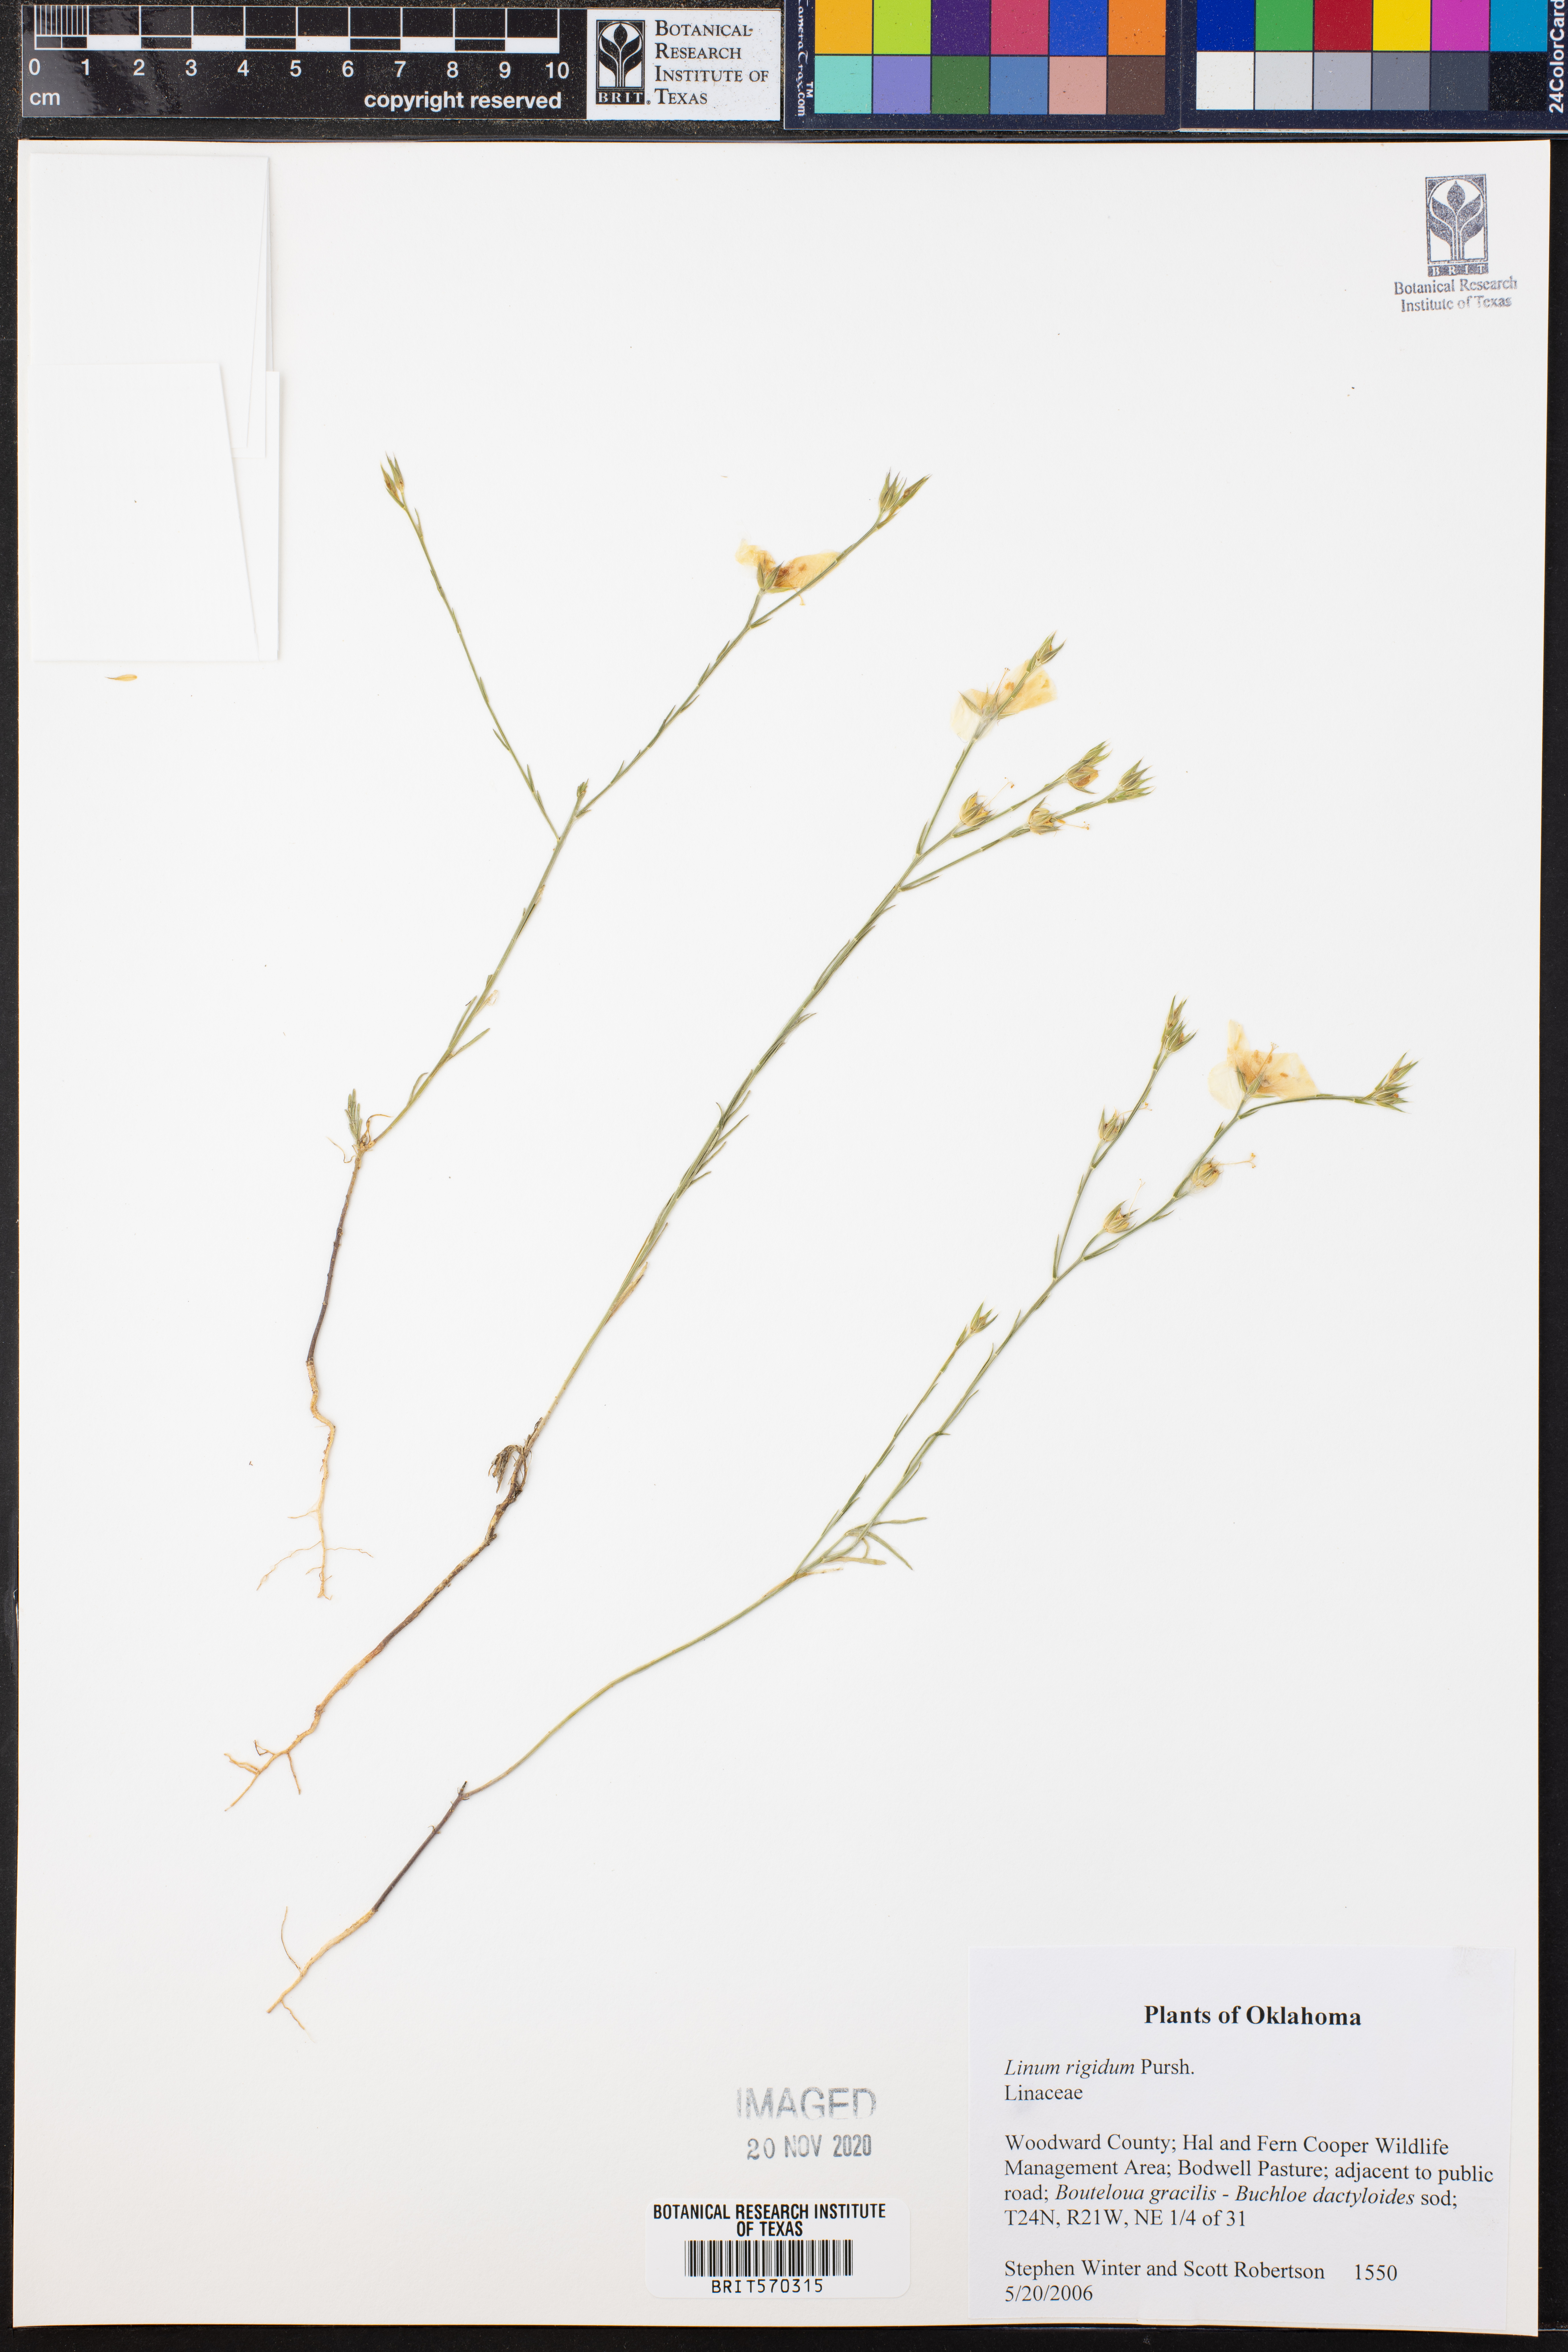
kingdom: Plantae
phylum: Tracheophyta
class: Magnoliopsida
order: Malpighiales
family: Linaceae
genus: Linum
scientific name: Linum rigidum
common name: Stiff-stem flax
